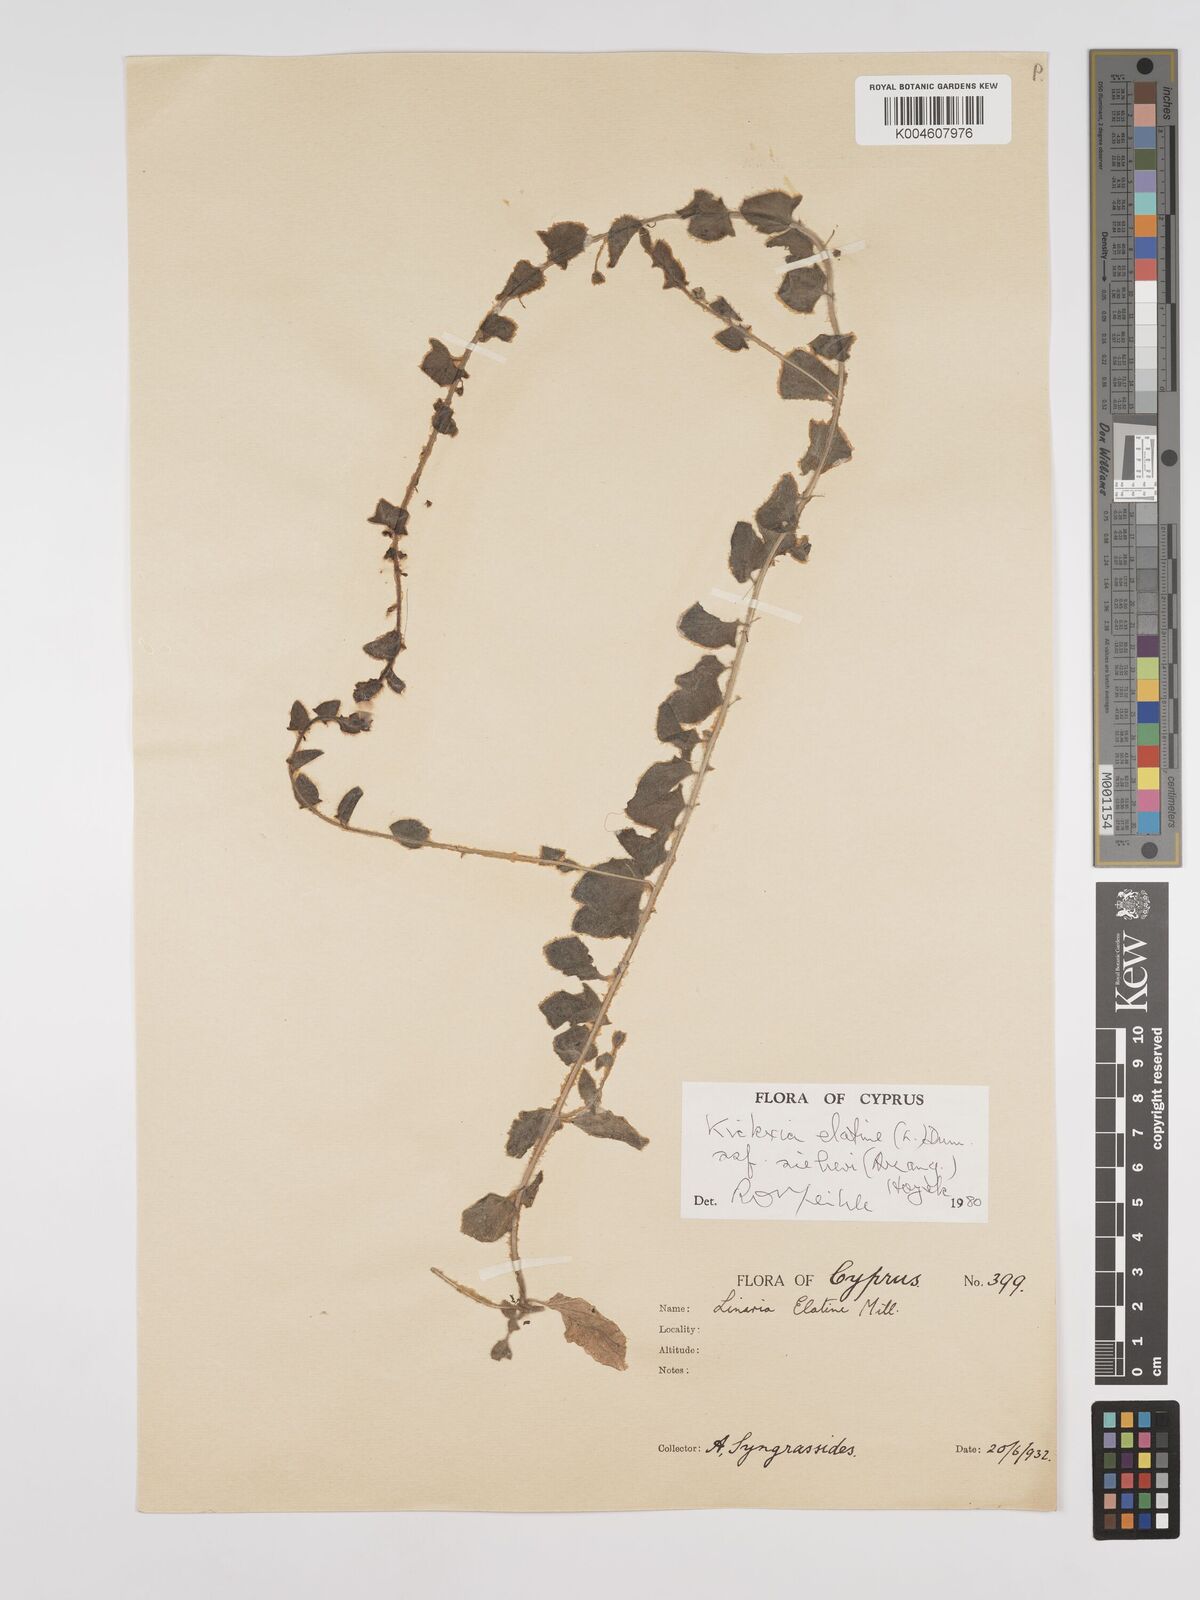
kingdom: Plantae
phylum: Tracheophyta
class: Magnoliopsida
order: Lamiales
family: Plantaginaceae
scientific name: Plantaginaceae
